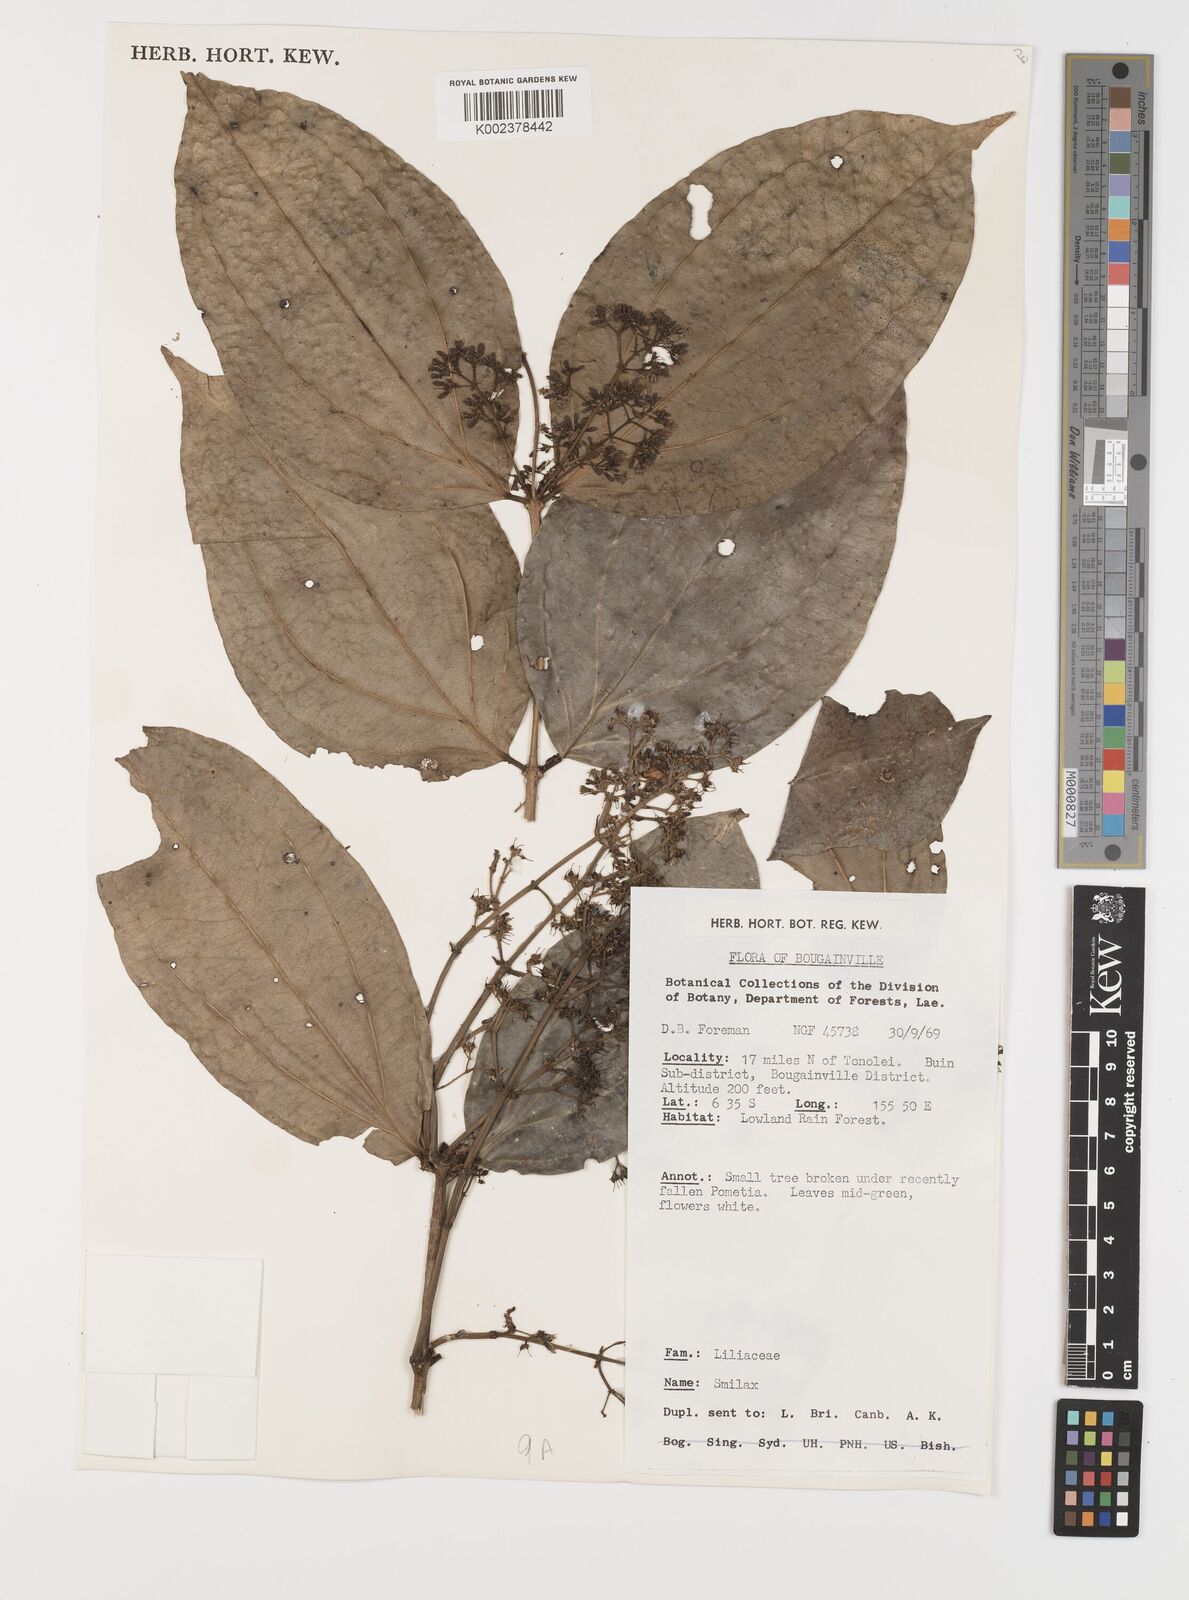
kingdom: Plantae
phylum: Tracheophyta
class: Liliopsida
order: Liliales
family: Smilacaceae
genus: Smilax
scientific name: Smilax
